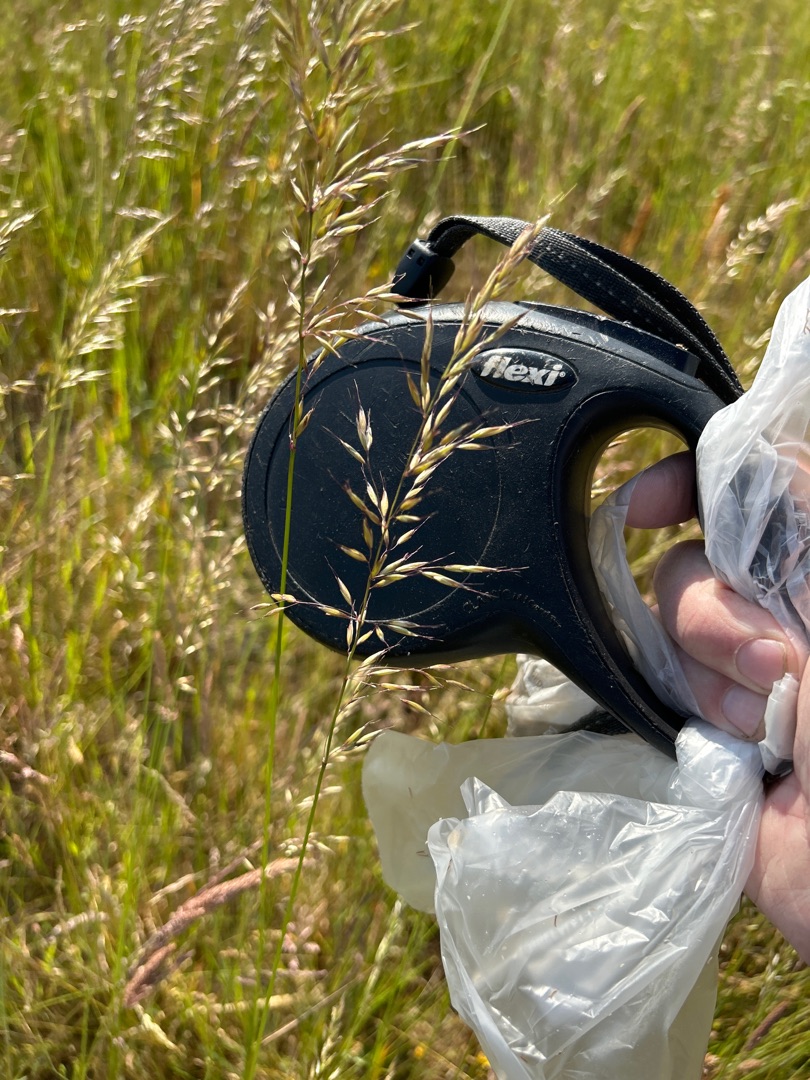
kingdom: Plantae
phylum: Tracheophyta
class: Liliopsida
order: Poales
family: Poaceae
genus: Arrhenatherum
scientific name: Arrhenatherum elatius
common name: Draphavre
